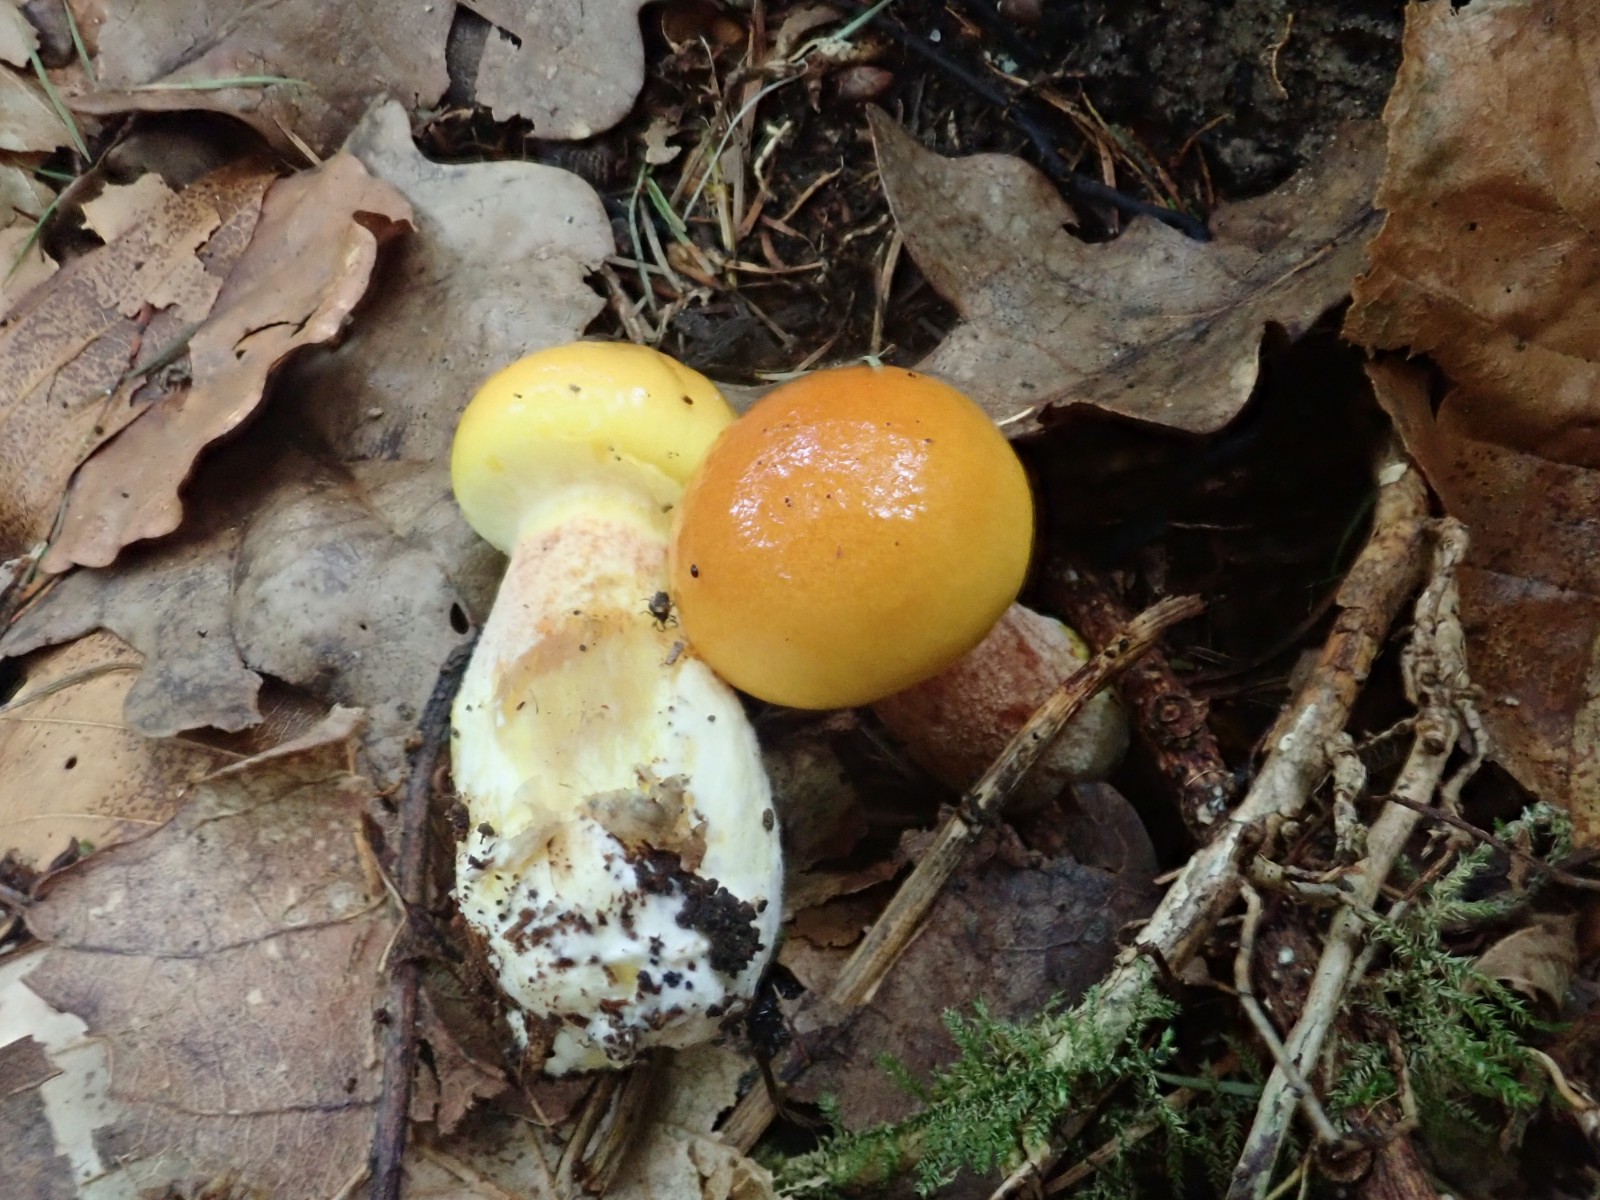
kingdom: Fungi
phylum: Basidiomycota
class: Agaricomycetes
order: Boletales
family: Suillaceae
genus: Suillus
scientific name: Suillus grevillei
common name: lærke-slimrørhat
